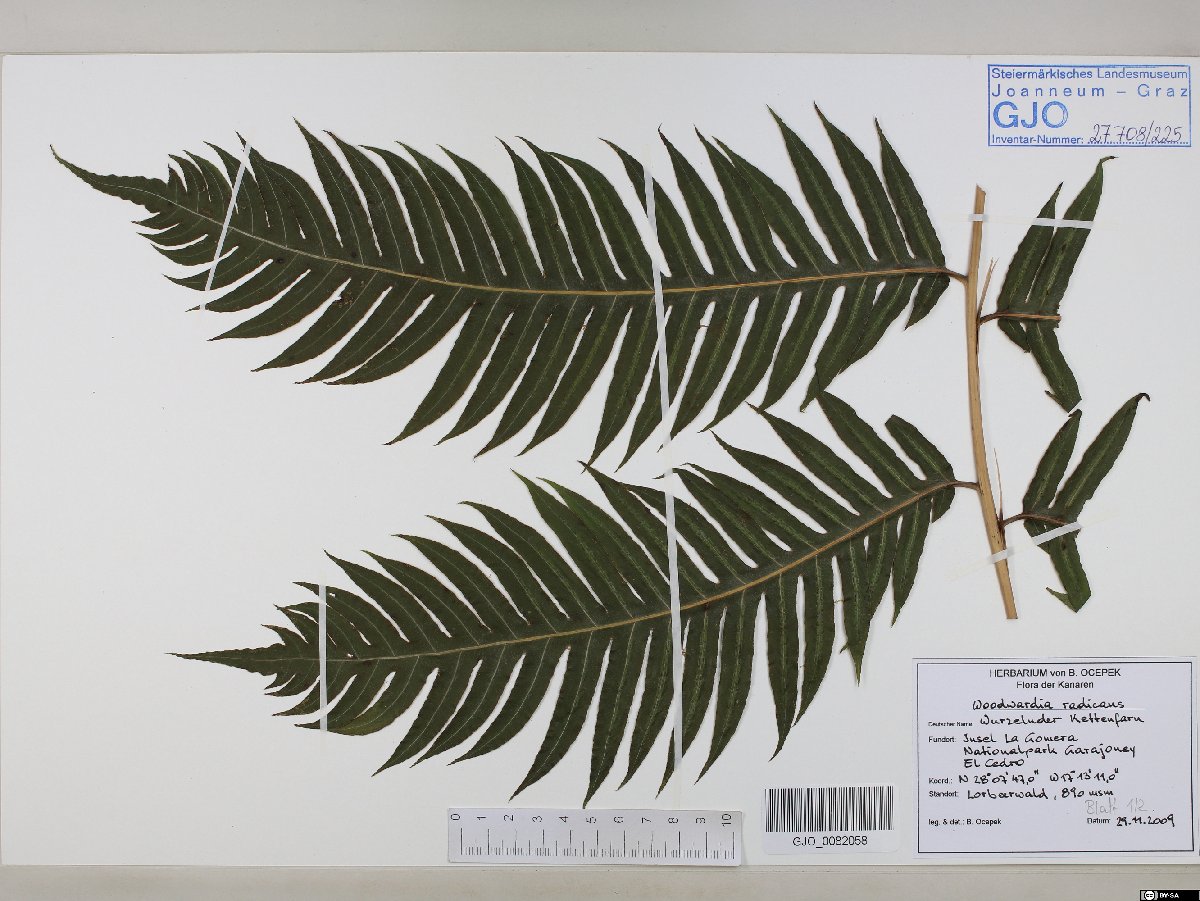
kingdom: Plantae
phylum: Tracheophyta
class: Polypodiopsida
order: Polypodiales
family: Blechnaceae
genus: Woodwardia
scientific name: Woodwardia radicans
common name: Rooting chainfern
